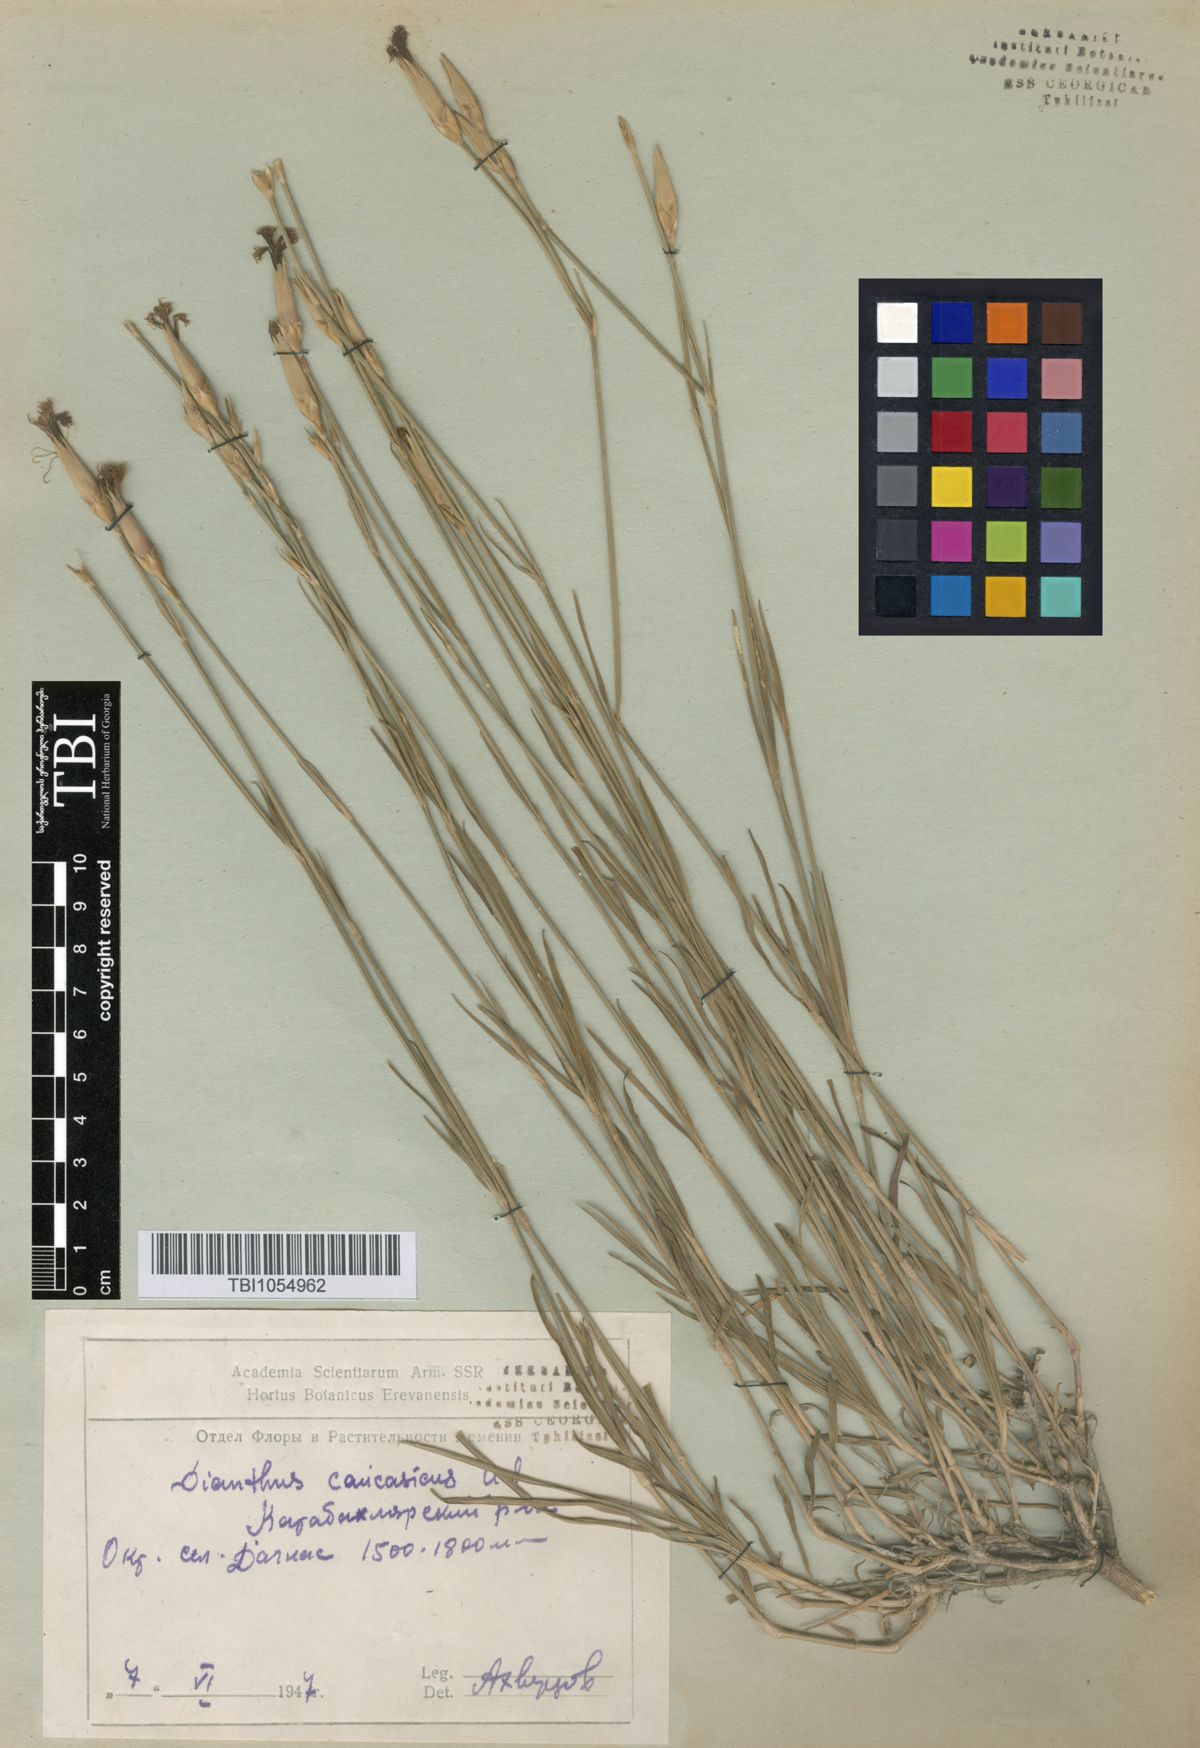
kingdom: Plantae
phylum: Tracheophyta
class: Magnoliopsida
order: Caryophyllales
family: Caryophyllaceae
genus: Dianthus
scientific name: Dianthus caucaseus
